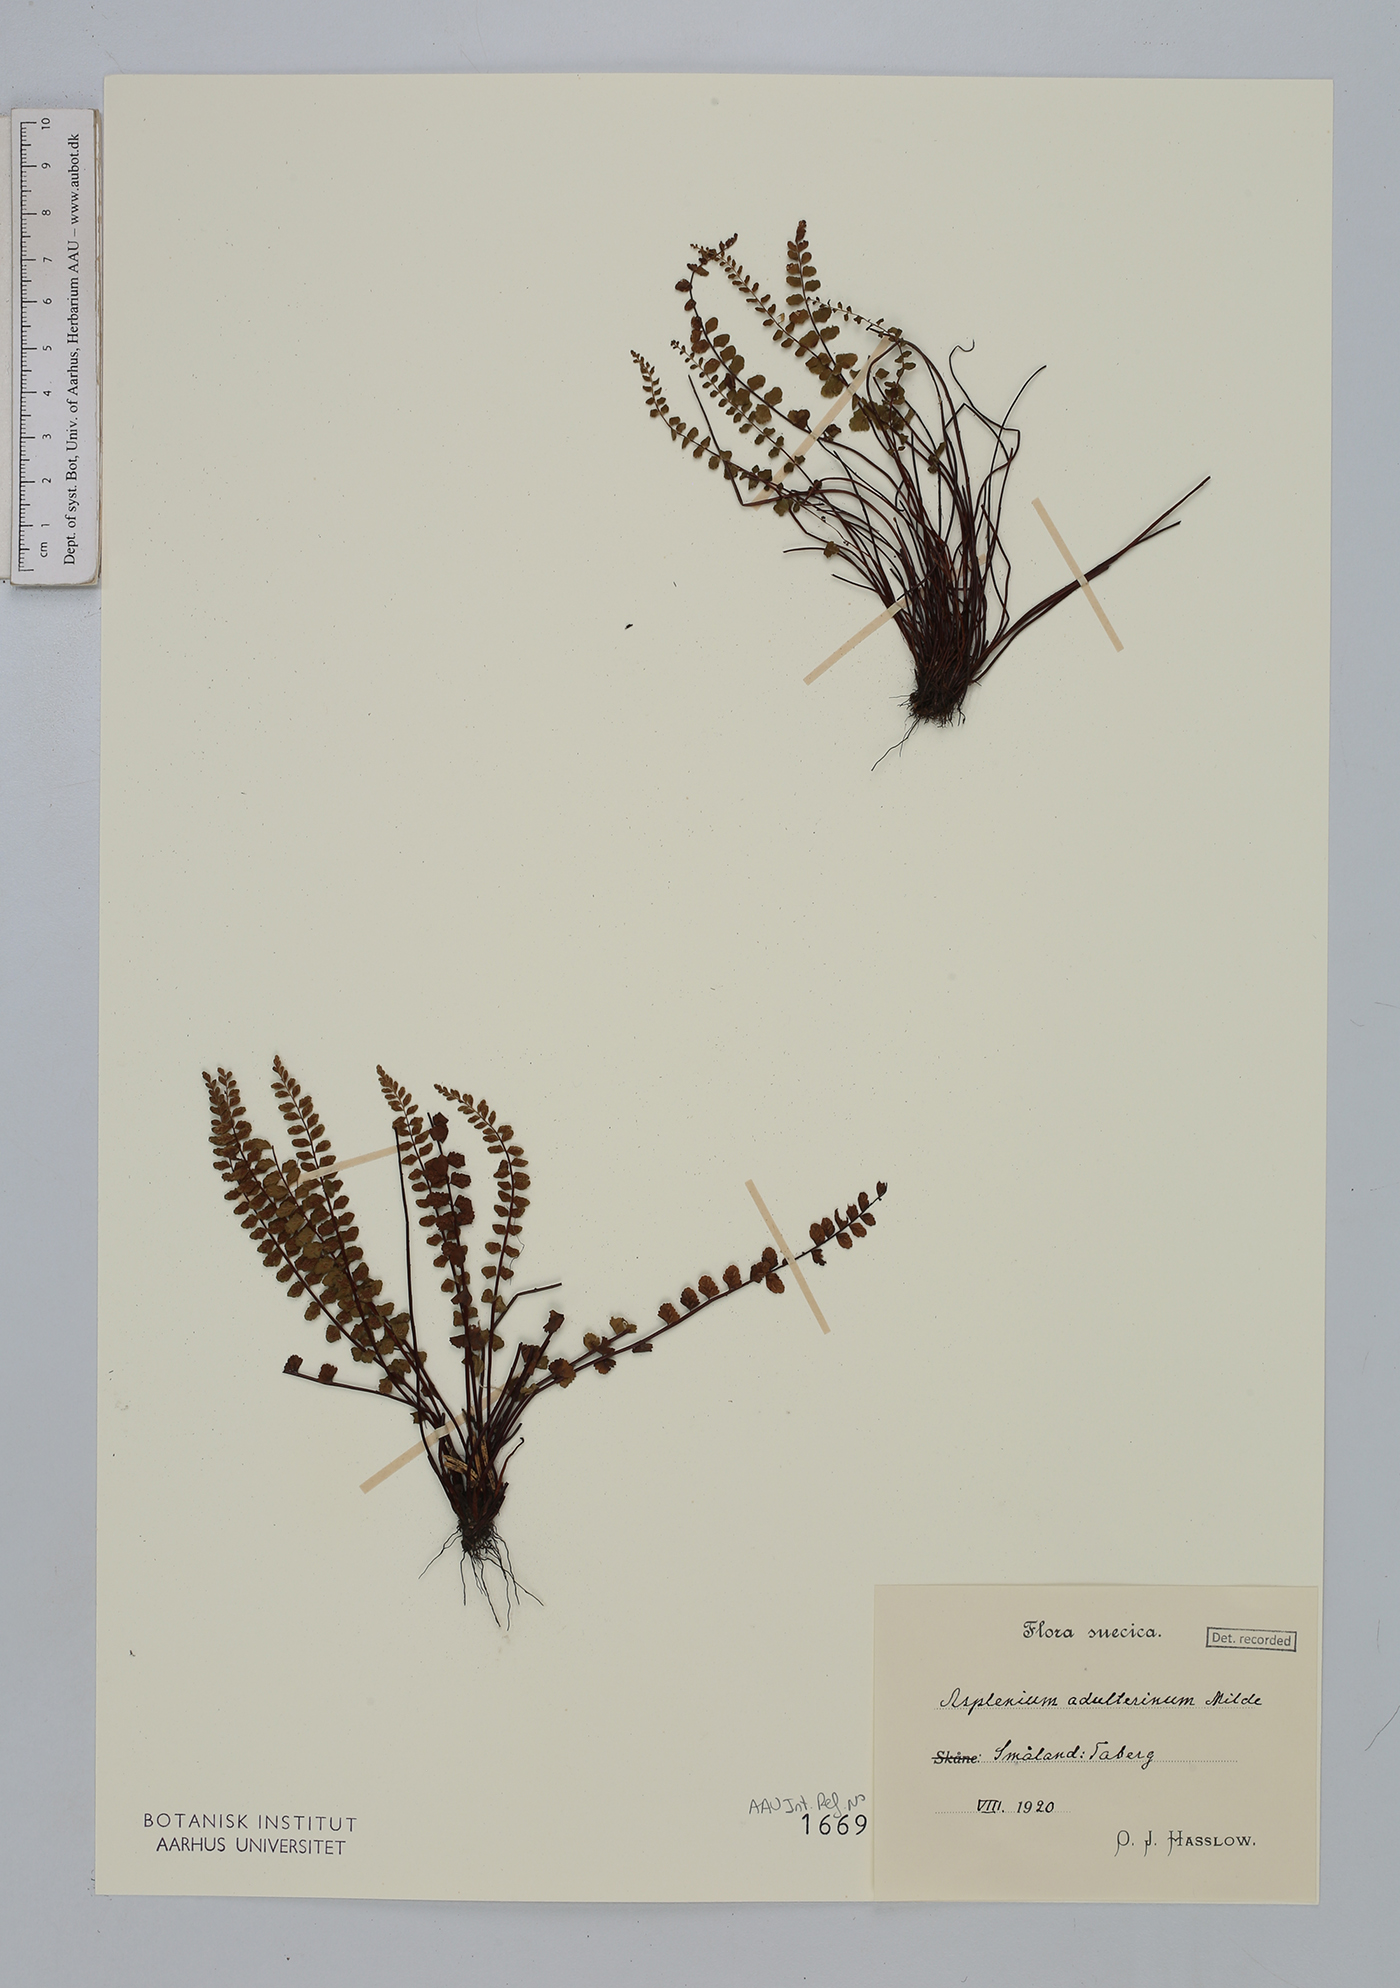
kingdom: Plantae
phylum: Tracheophyta
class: Polypodiopsida
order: Polypodiales
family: Aspleniaceae
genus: Asplenium
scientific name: Asplenium adulterinum
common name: Adulterated spleenwort
